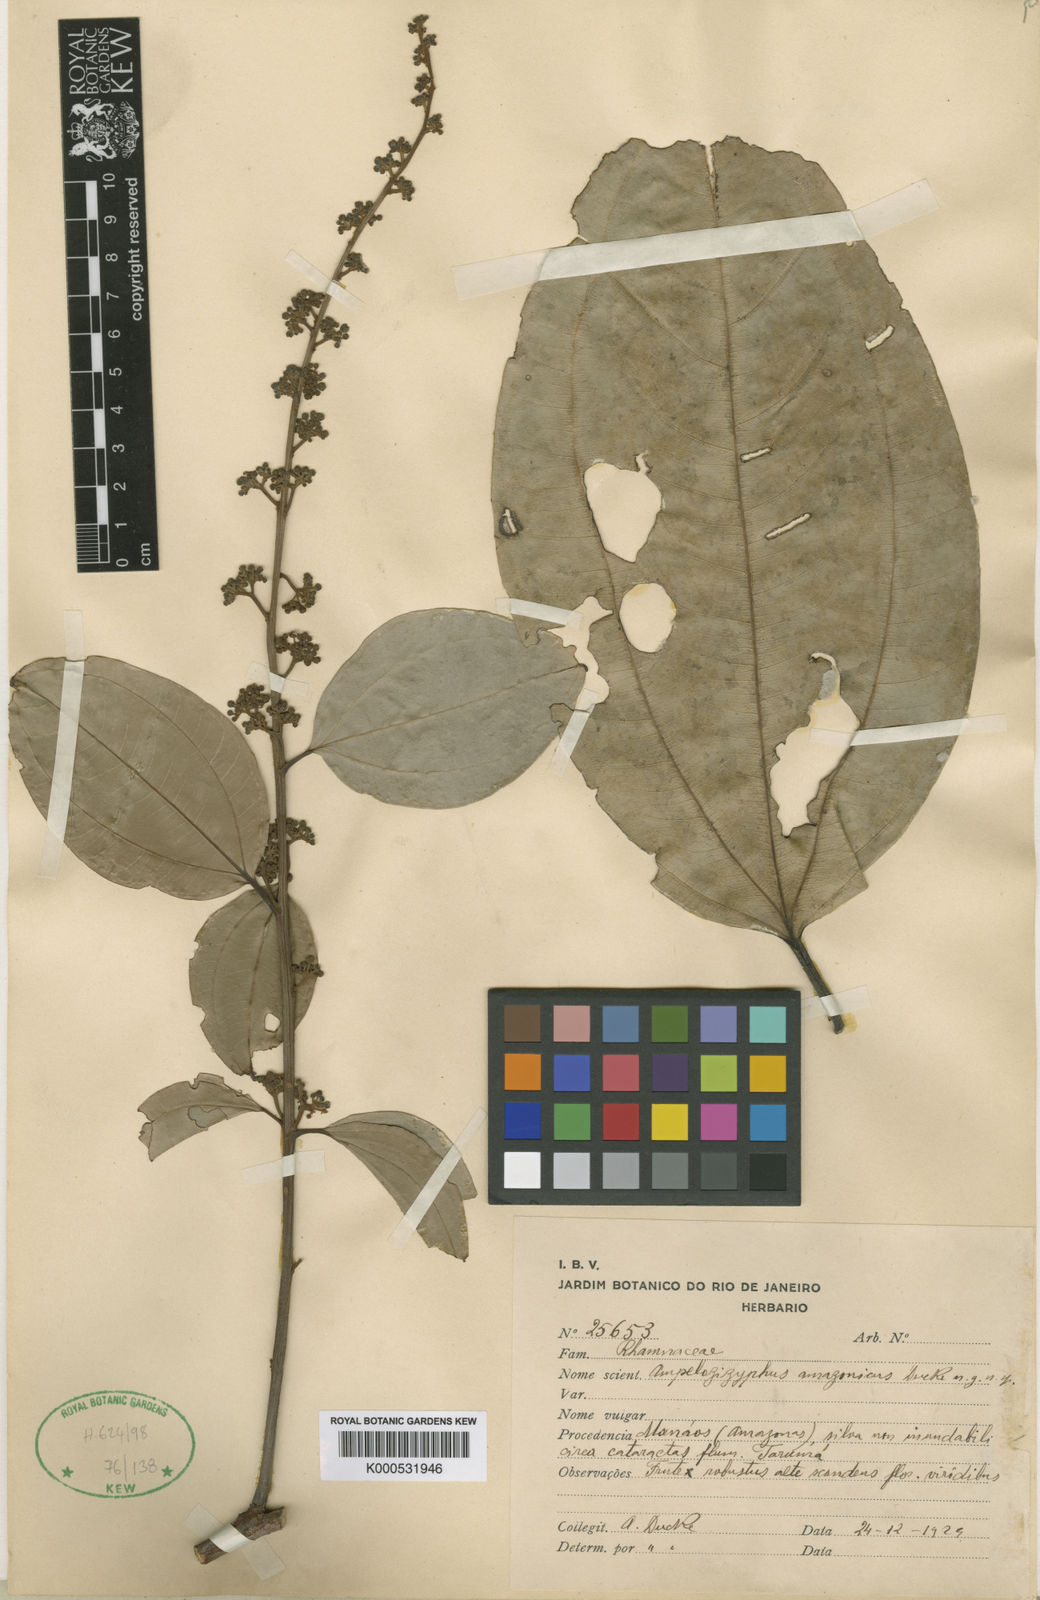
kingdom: Plantae
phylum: Tracheophyta
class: Magnoliopsida
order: Rosales
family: Rhamnaceae
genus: Ampelozizyphus
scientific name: Ampelozizyphus amazonicus
